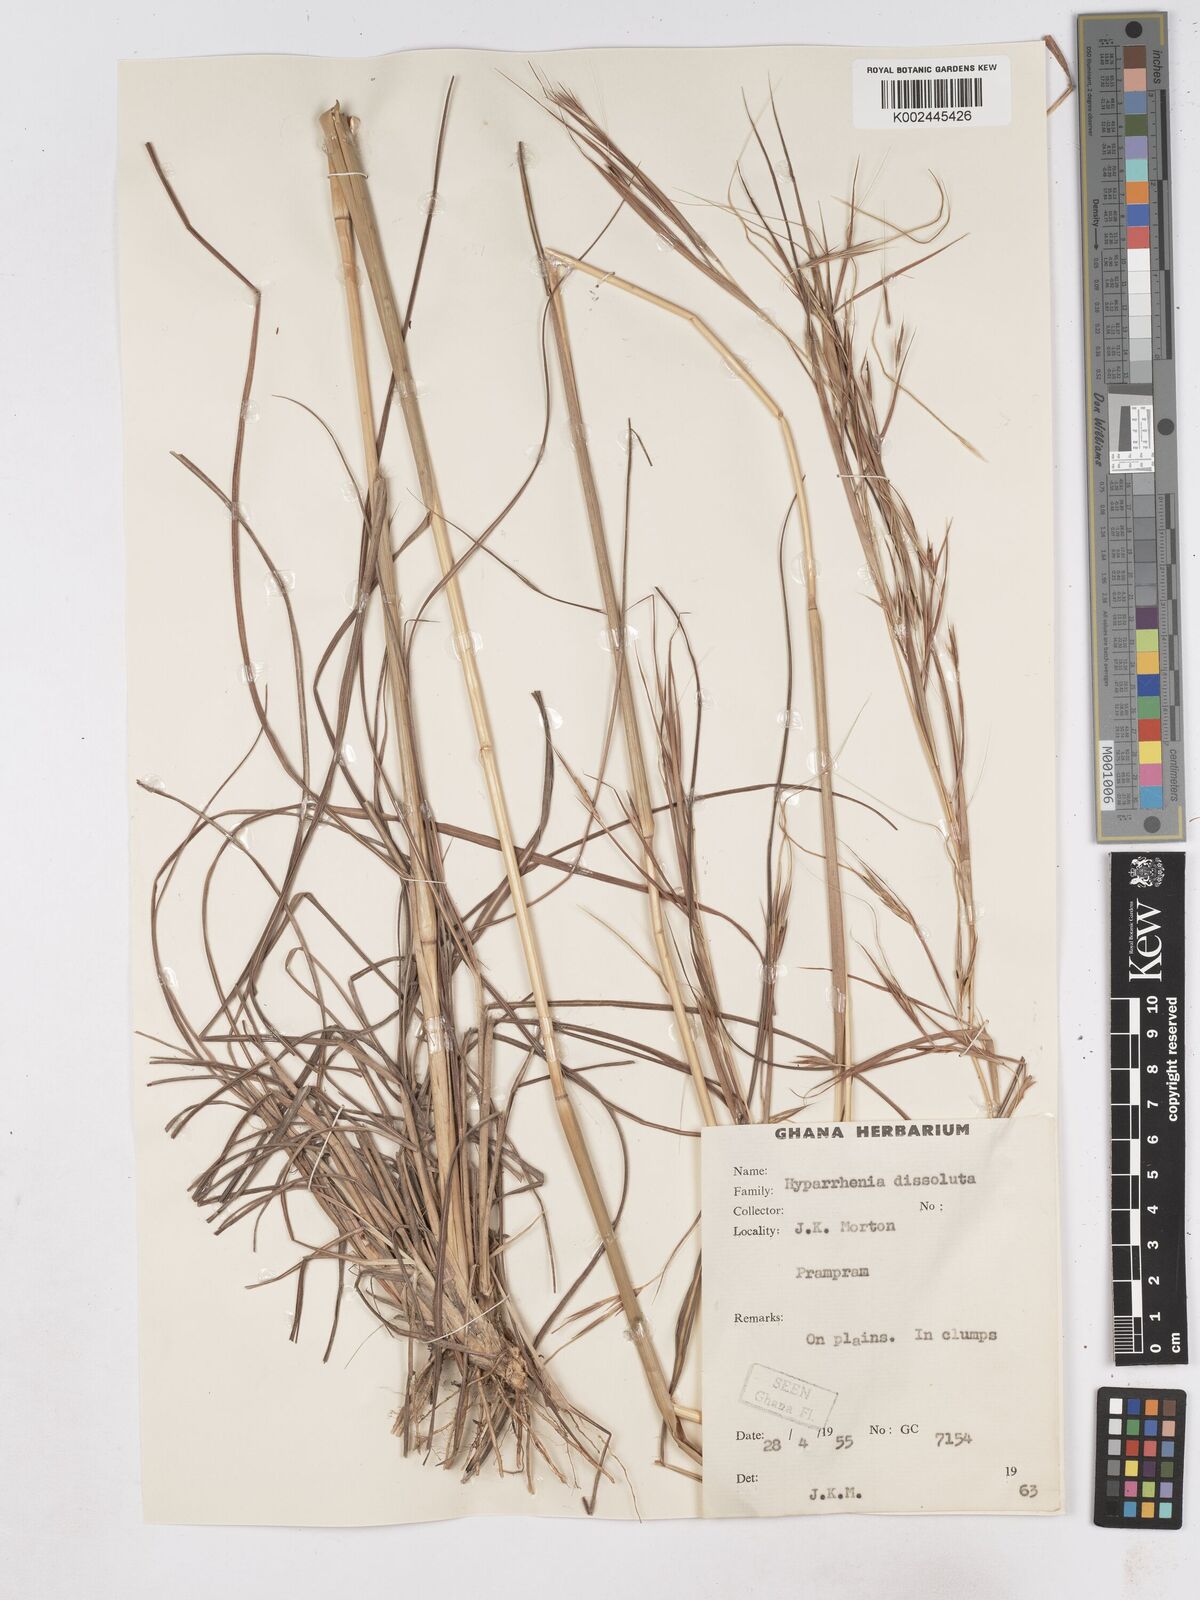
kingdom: Plantae
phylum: Tracheophyta
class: Liliopsida
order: Poales
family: Poaceae
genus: Hyperthelia
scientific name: Hyperthelia dissoluta
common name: Yellow thatching grass
